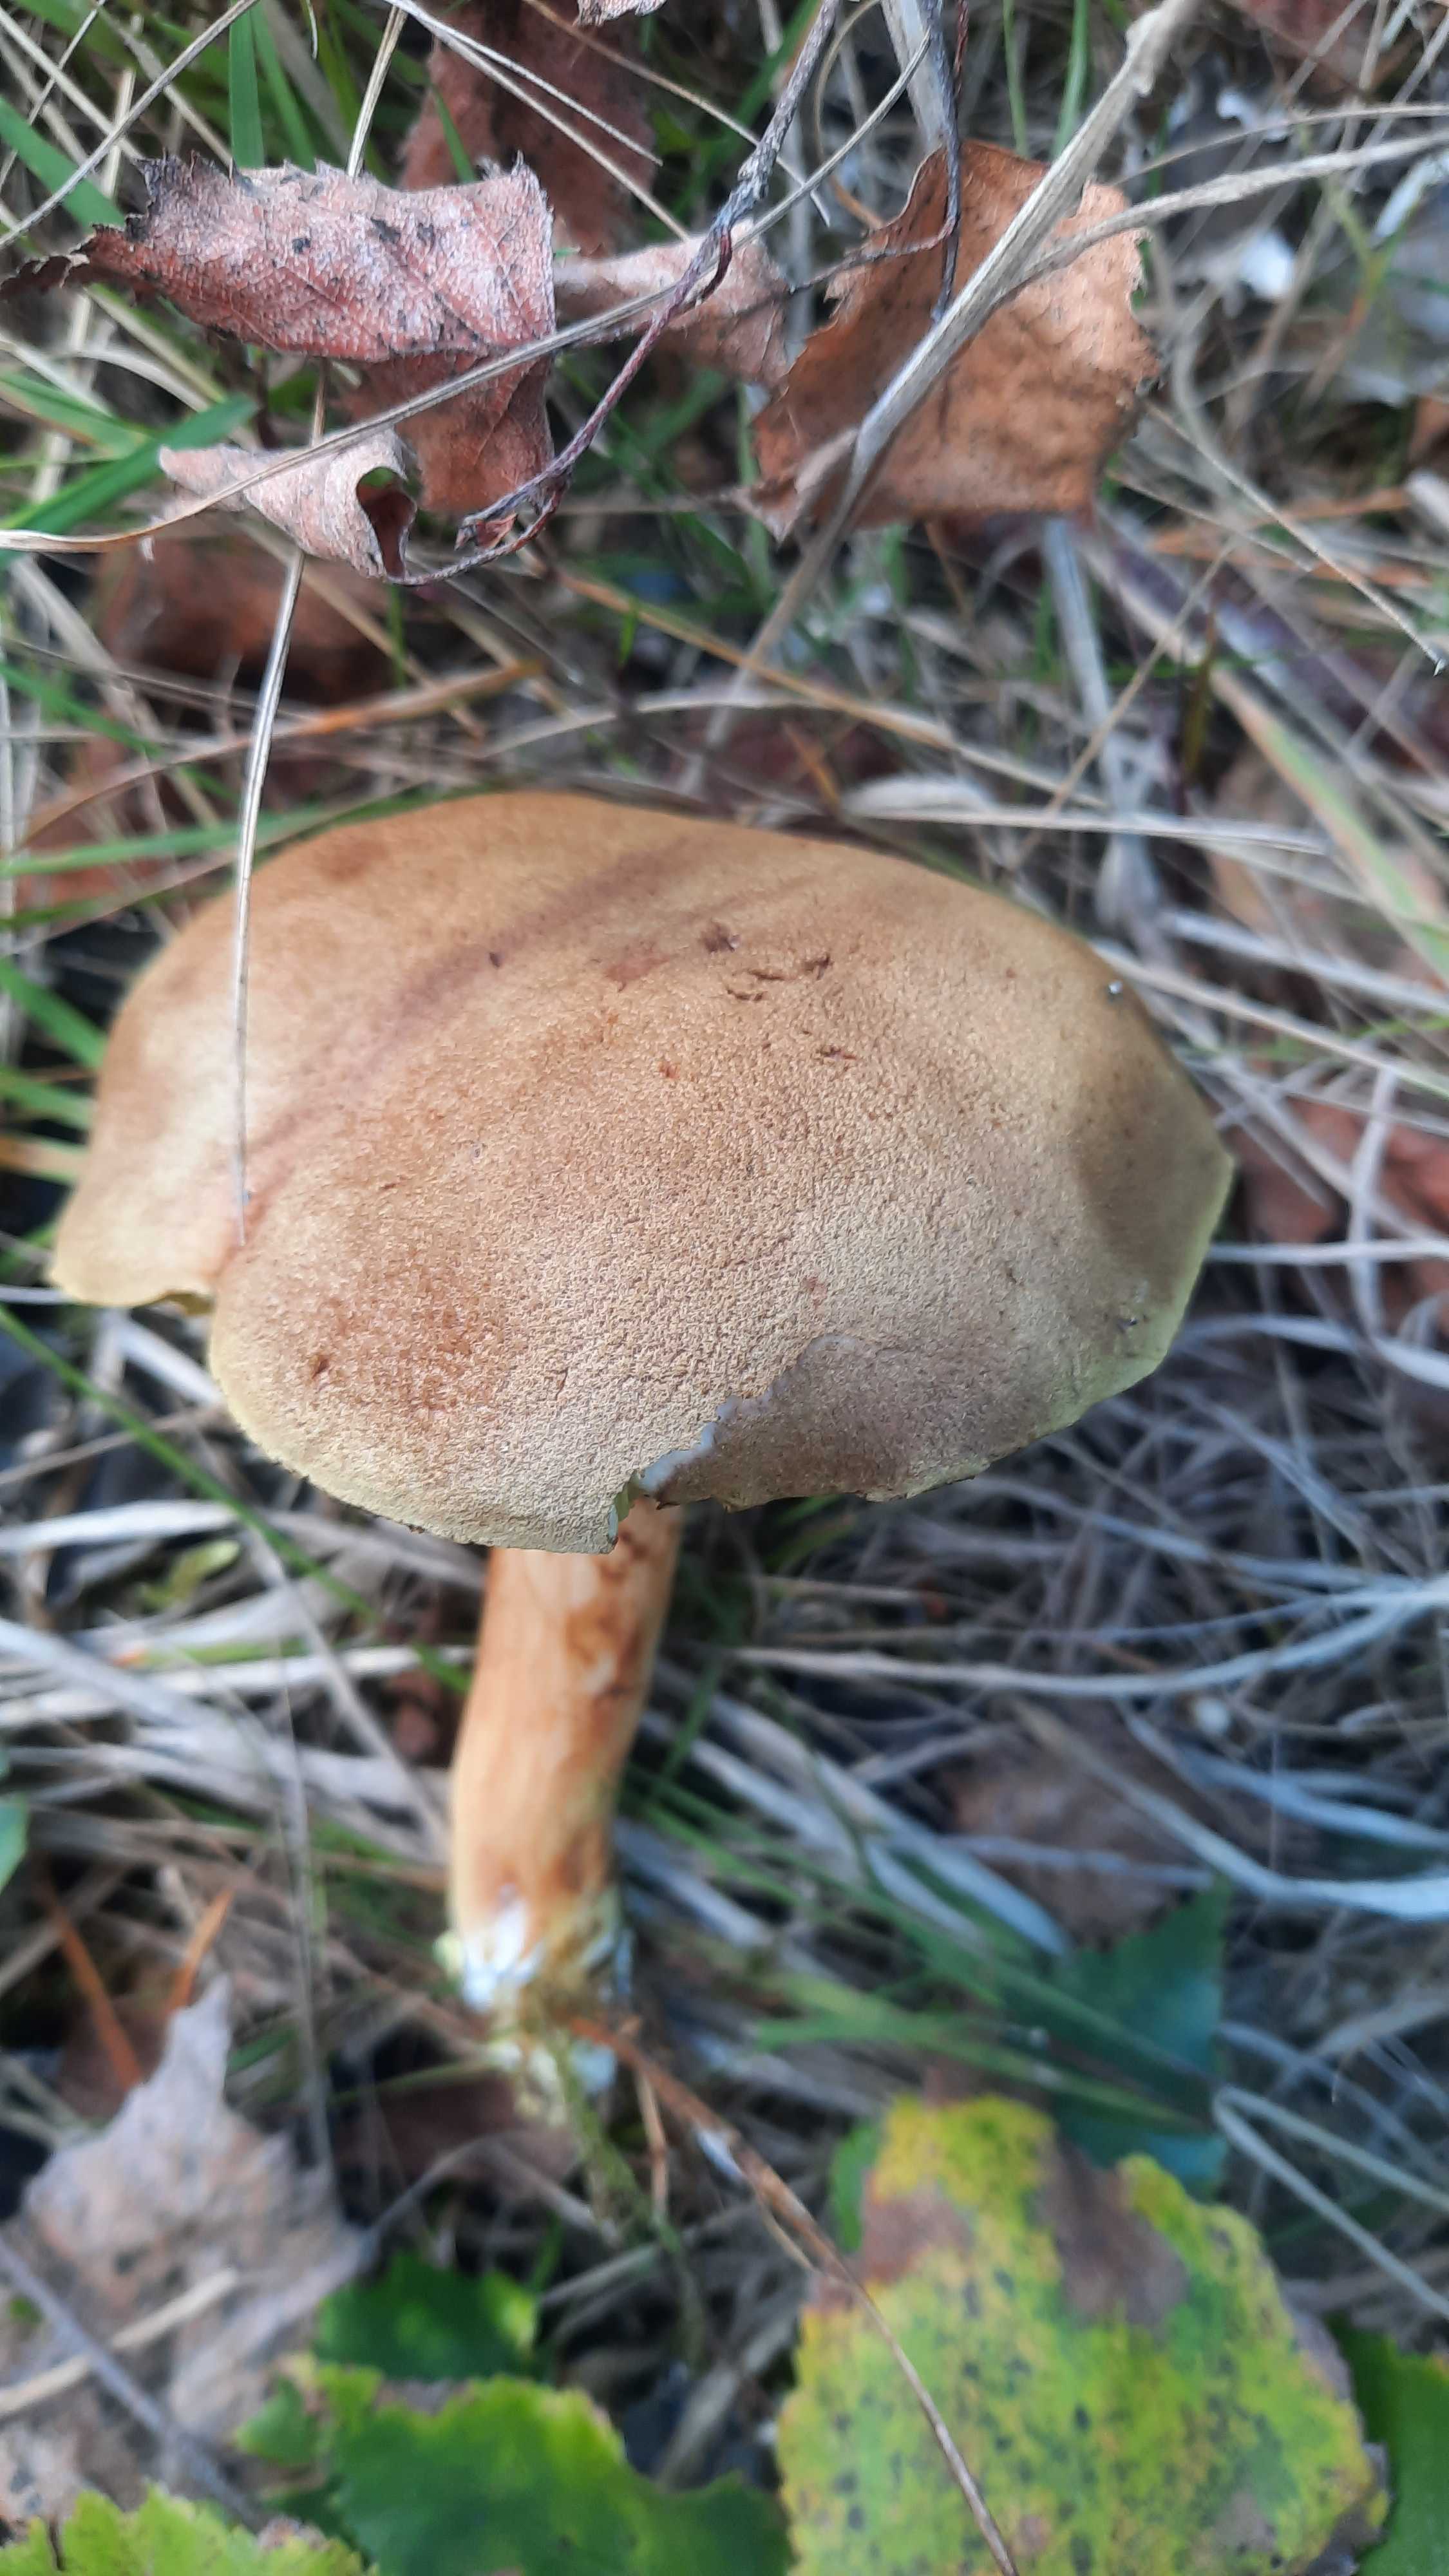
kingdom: Fungi
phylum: Basidiomycota
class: Agaricomycetes
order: Boletales
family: Boletaceae
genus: Xerocomus
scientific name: Xerocomus
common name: filtrørhat
